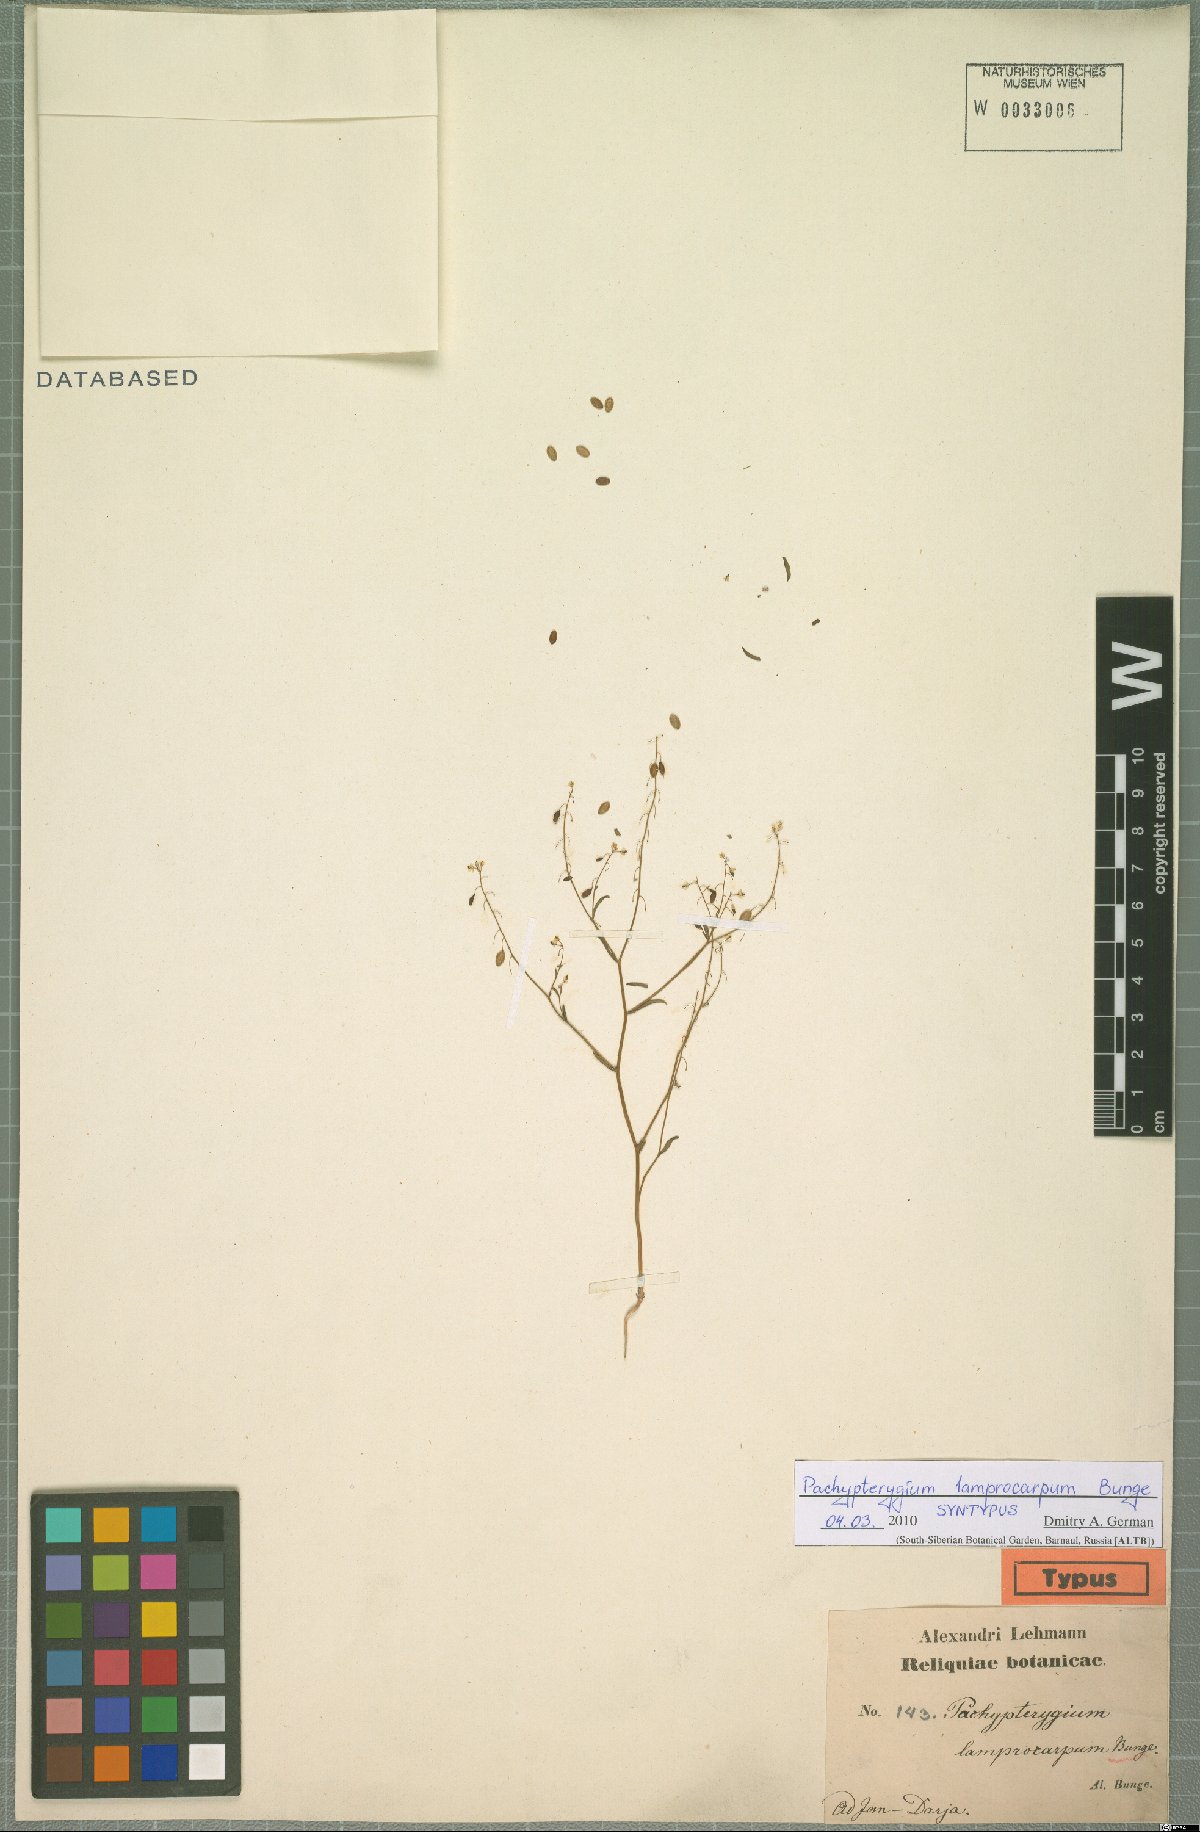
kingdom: Plantae
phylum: Tracheophyta
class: Magnoliopsida
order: Brassicales
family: Brassicaceae
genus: Isatis
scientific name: Isatis multicaulis
